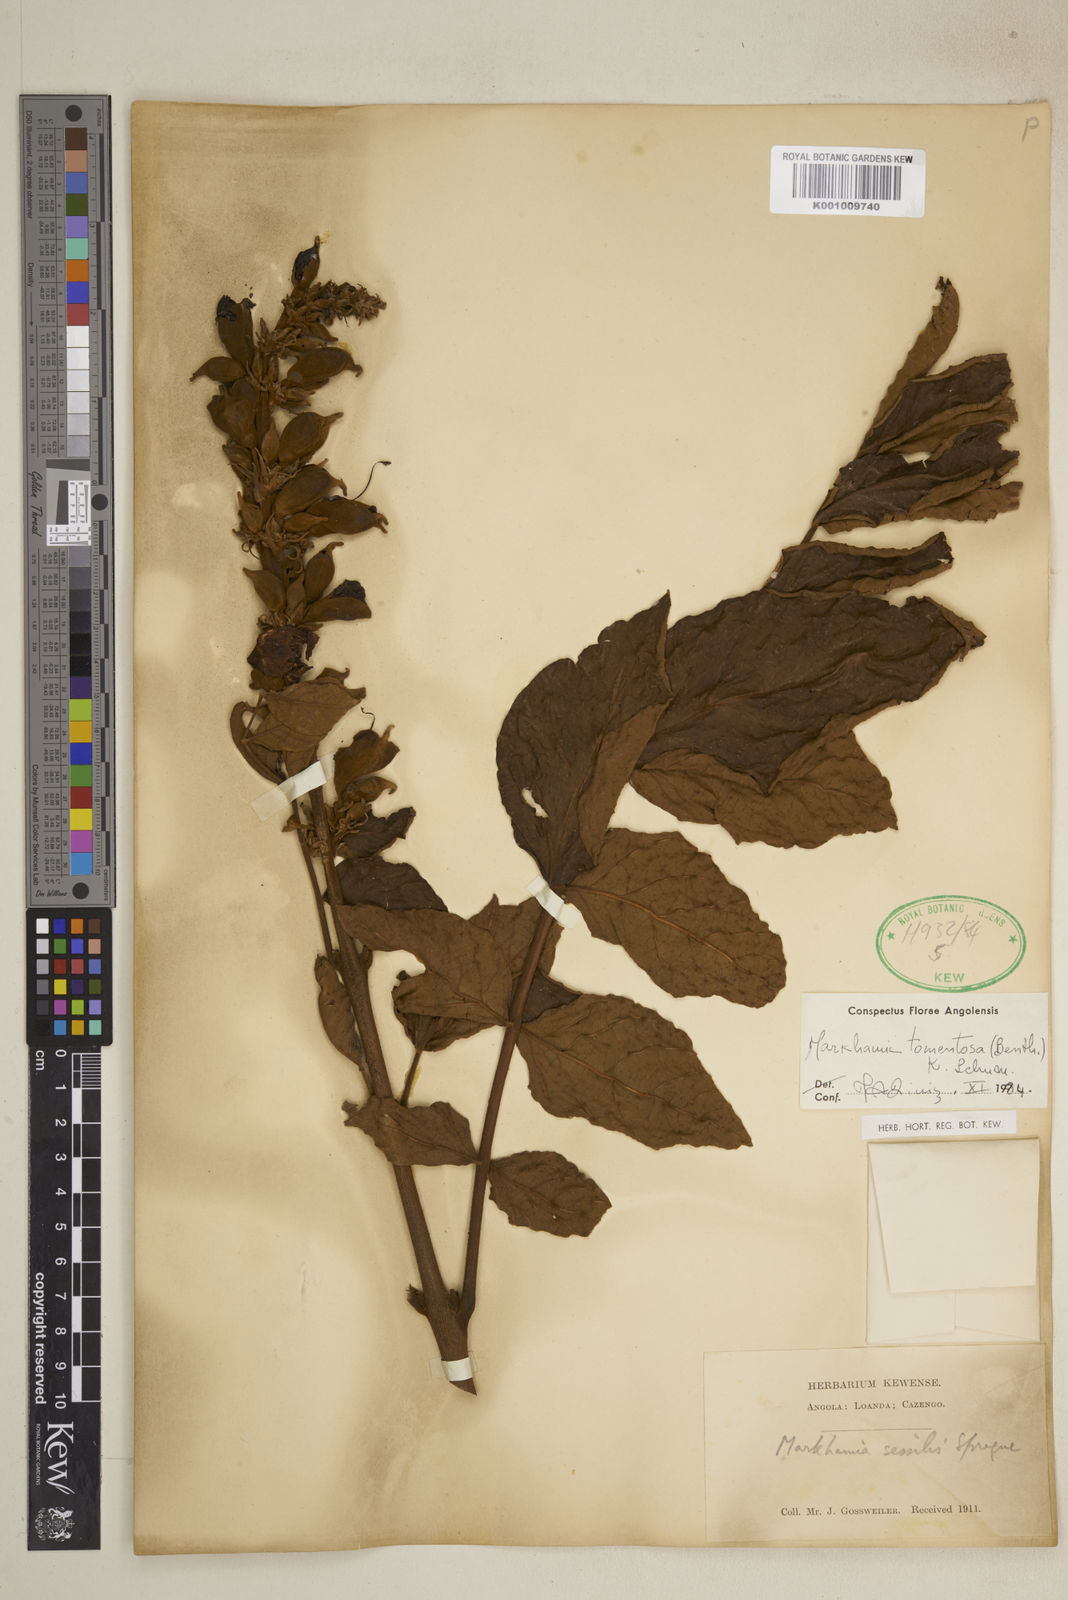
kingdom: Plantae
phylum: Tracheophyta
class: Magnoliopsida
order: Lamiales
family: Bignoniaceae
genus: Markhamia
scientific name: Markhamia tomentosa
